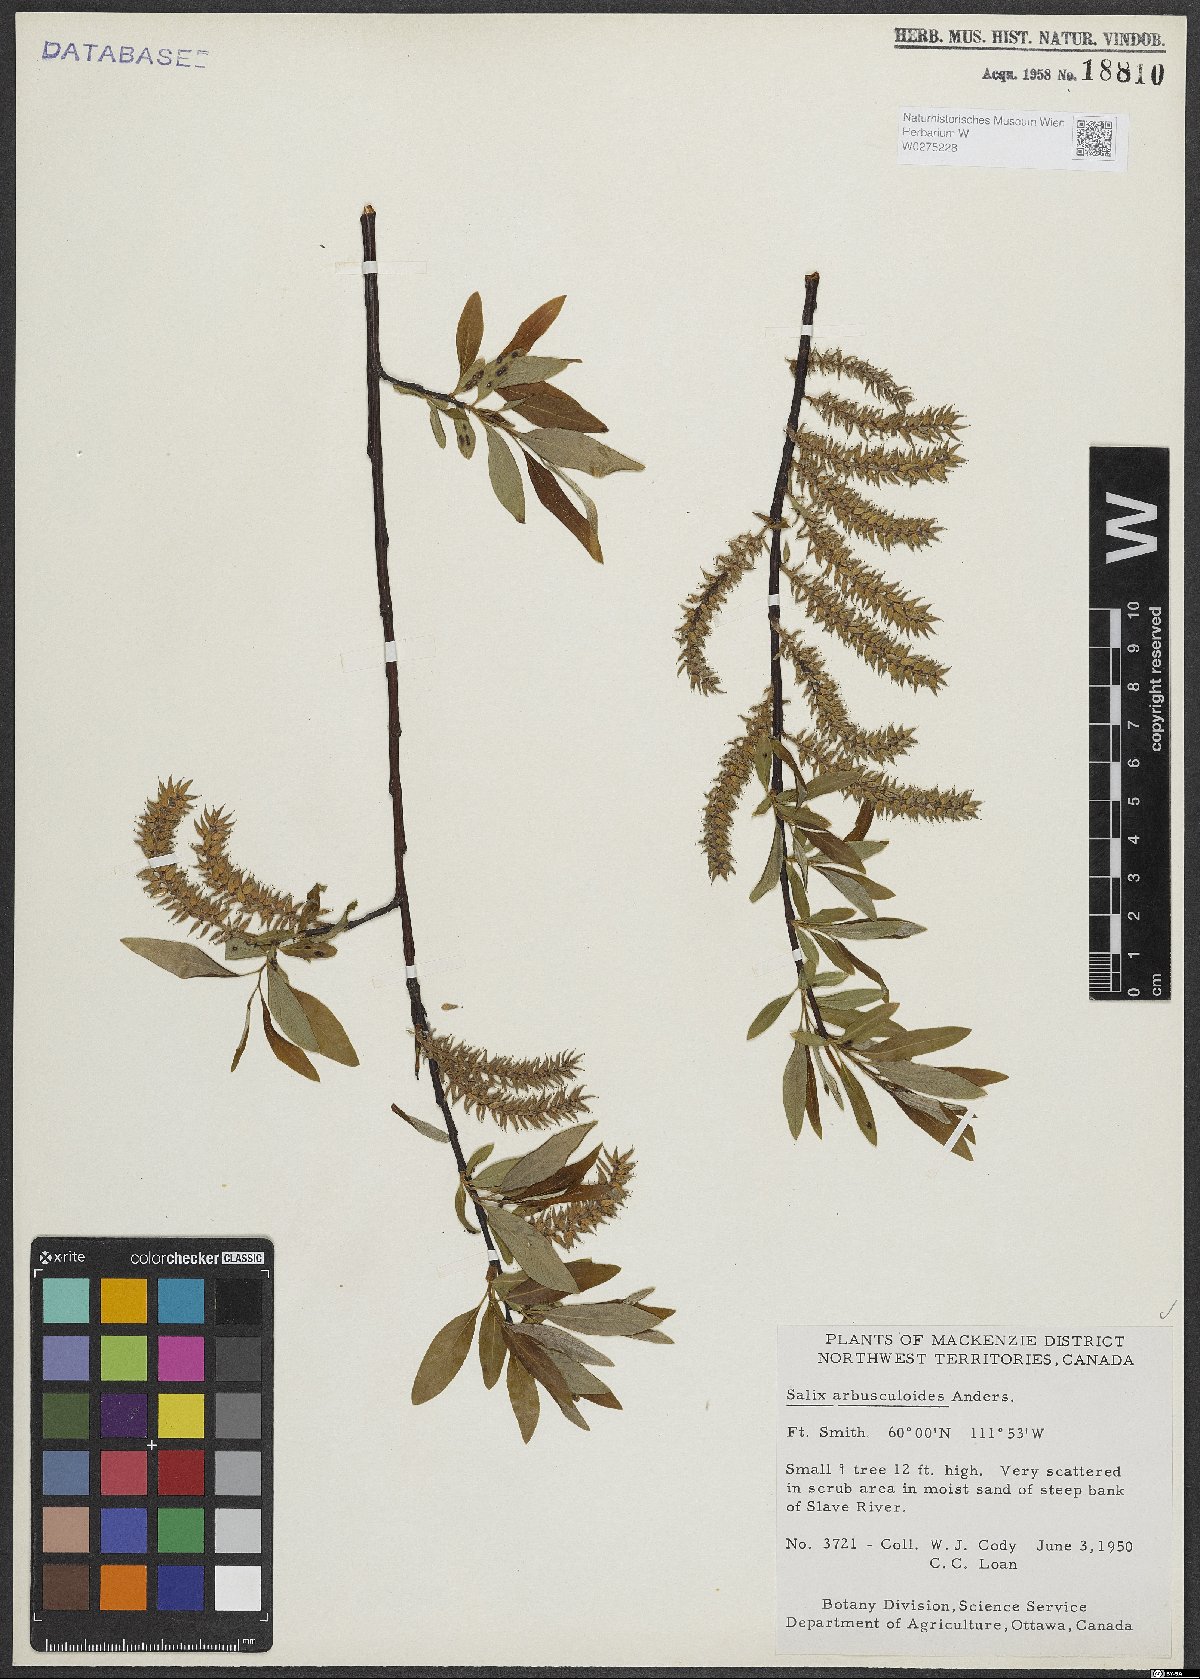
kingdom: Plantae
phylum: Tracheophyta
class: Magnoliopsida
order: Malpighiales
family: Salicaceae
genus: Salix
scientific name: Salix arbusculoides
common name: Little-tree willow
